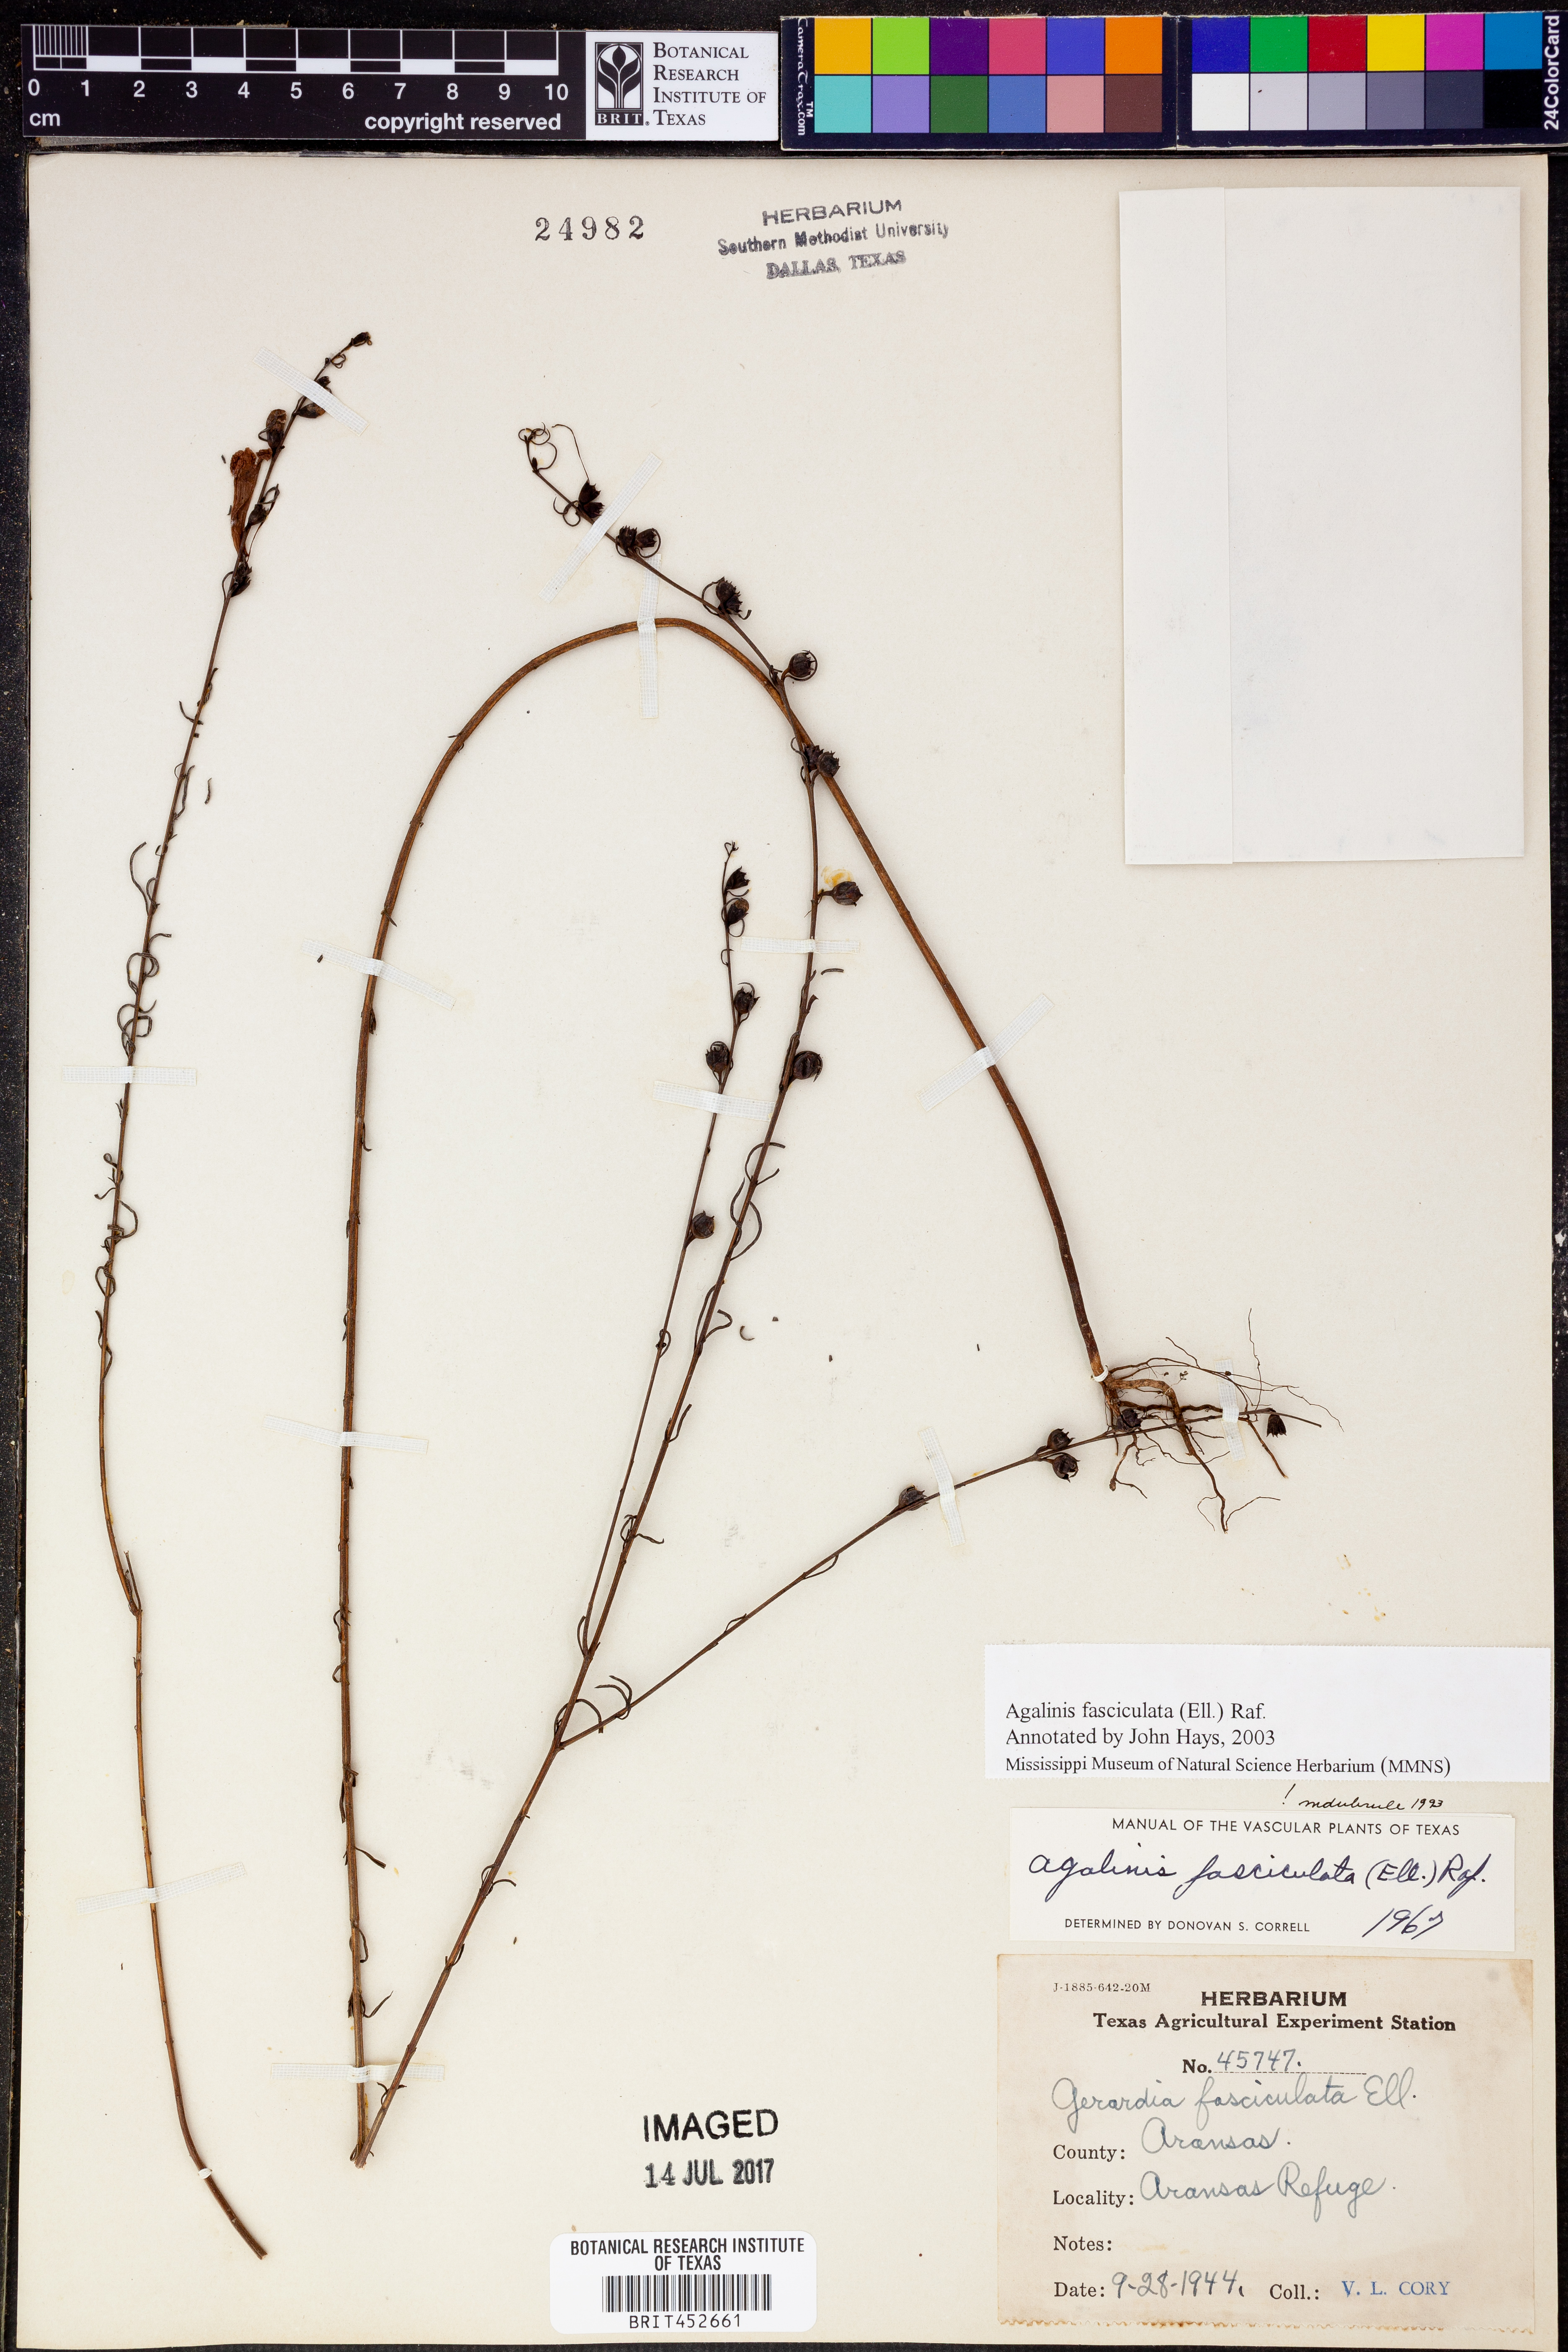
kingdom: Plantae
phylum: Tracheophyta
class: Magnoliopsida
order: Lamiales
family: Orobanchaceae
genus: Agalinis
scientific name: Agalinis fasciculata
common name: Beach false foxglove
